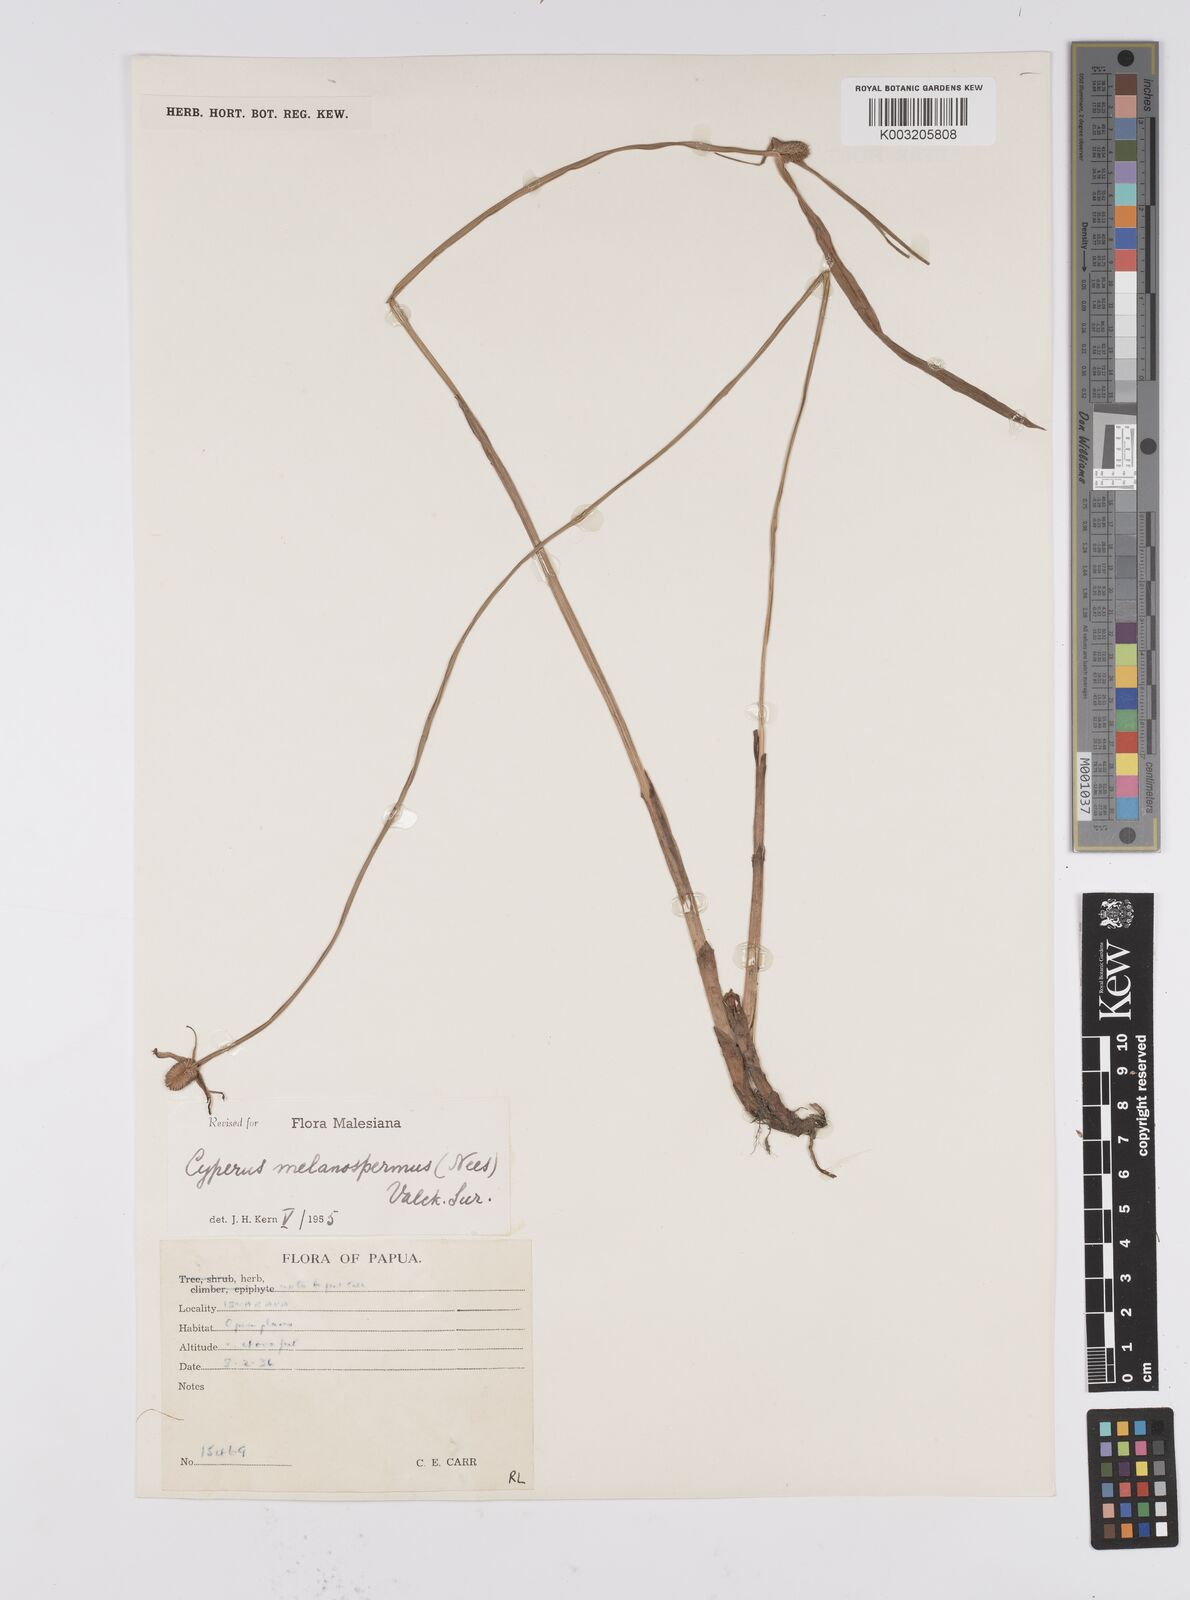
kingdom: Plantae
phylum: Tracheophyta
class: Liliopsida
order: Poales
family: Cyperaceae
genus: Cyperus
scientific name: Cyperus melanospermus
